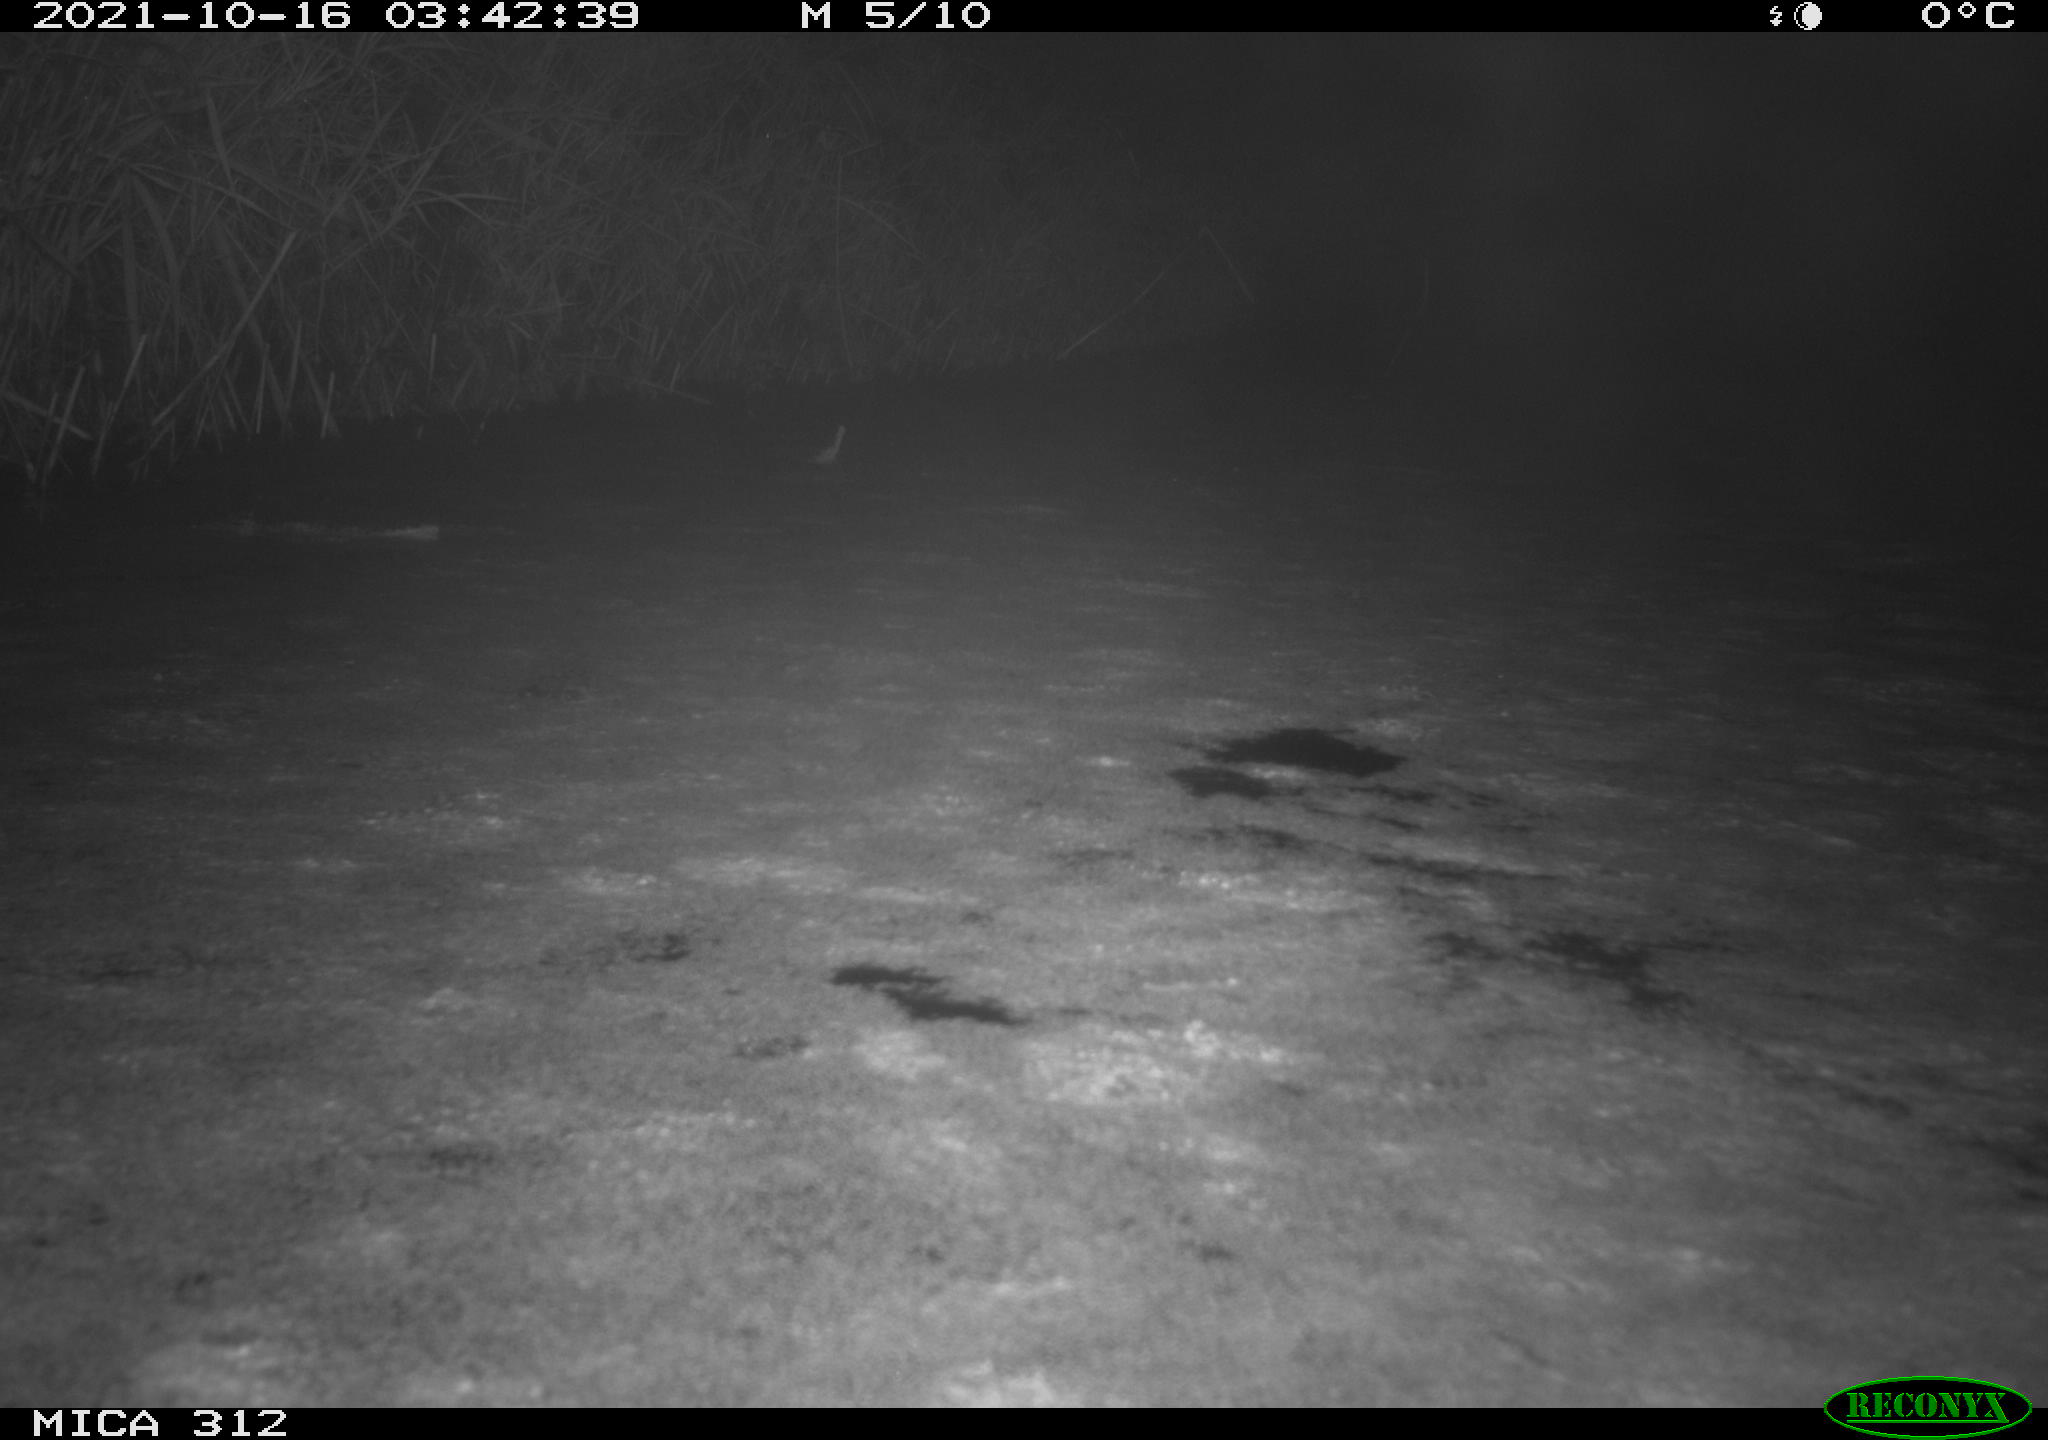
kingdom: Animalia
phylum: Chordata
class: Mammalia
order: Rodentia
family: Muridae
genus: Rattus
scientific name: Rattus norvegicus
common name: Brown rat
